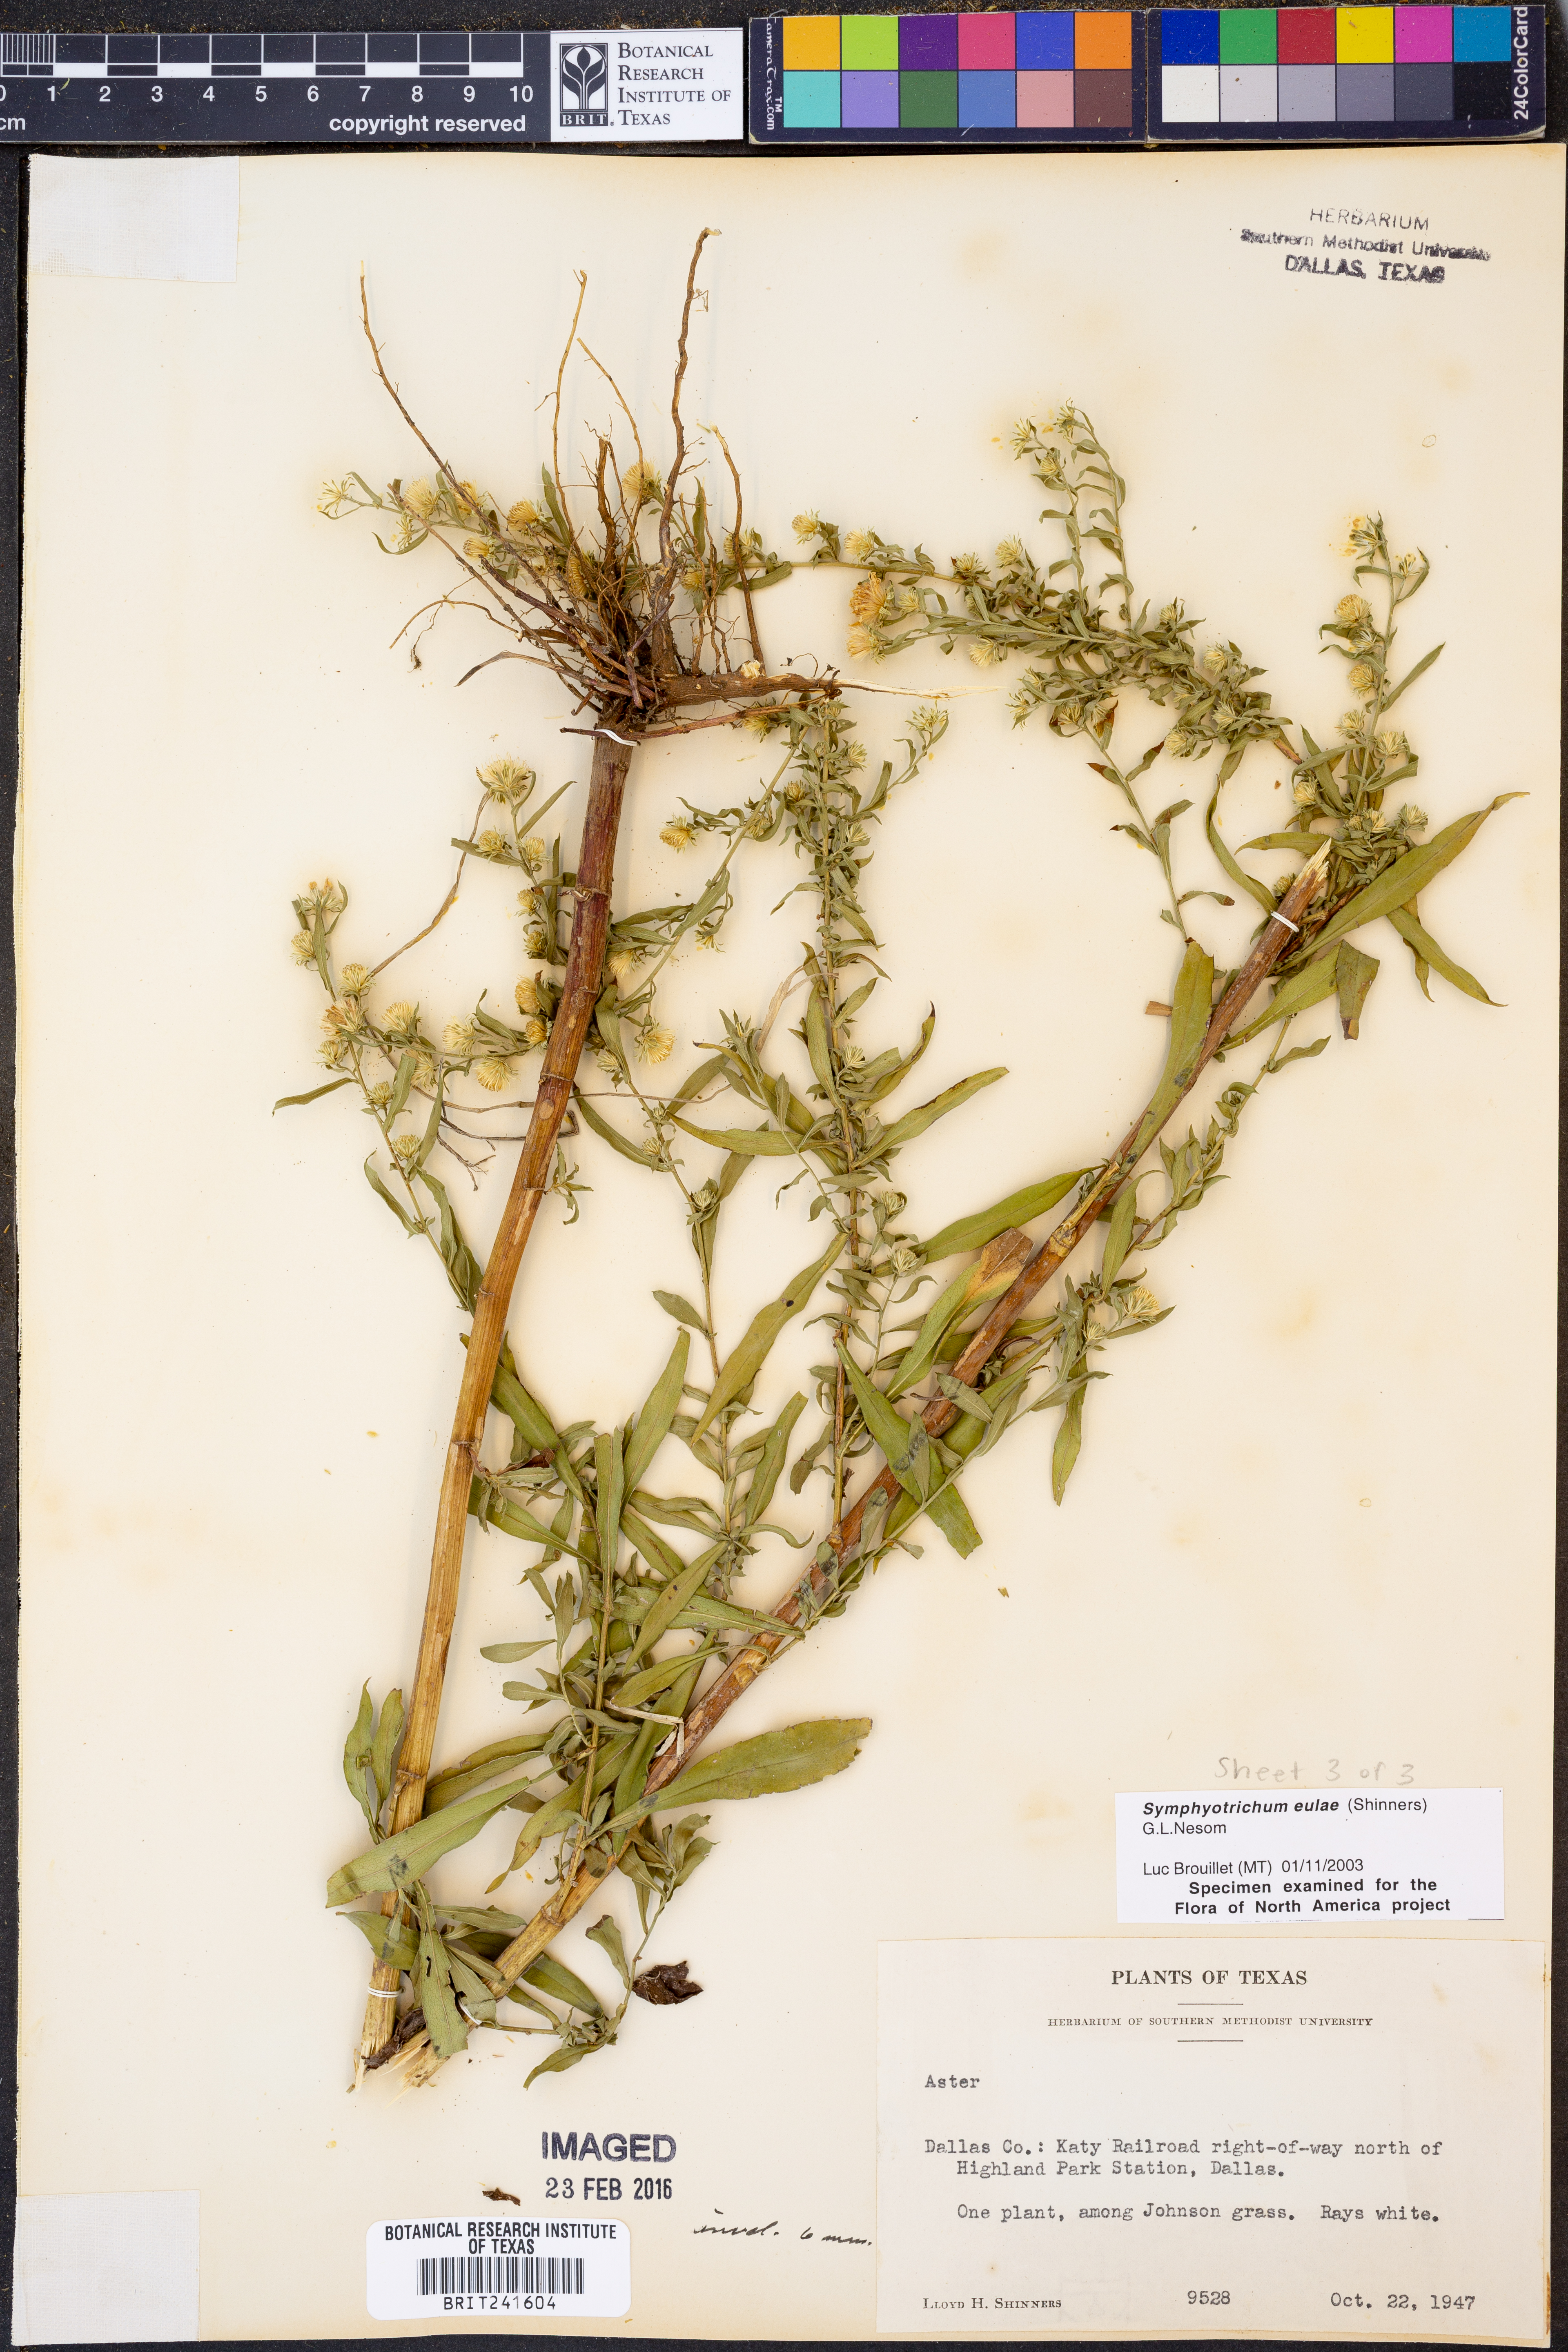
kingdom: Plantae
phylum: Tracheophyta
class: Magnoliopsida
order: Asterales
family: Asteraceae
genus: Symphyotrichum
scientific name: Symphyotrichum eulae
